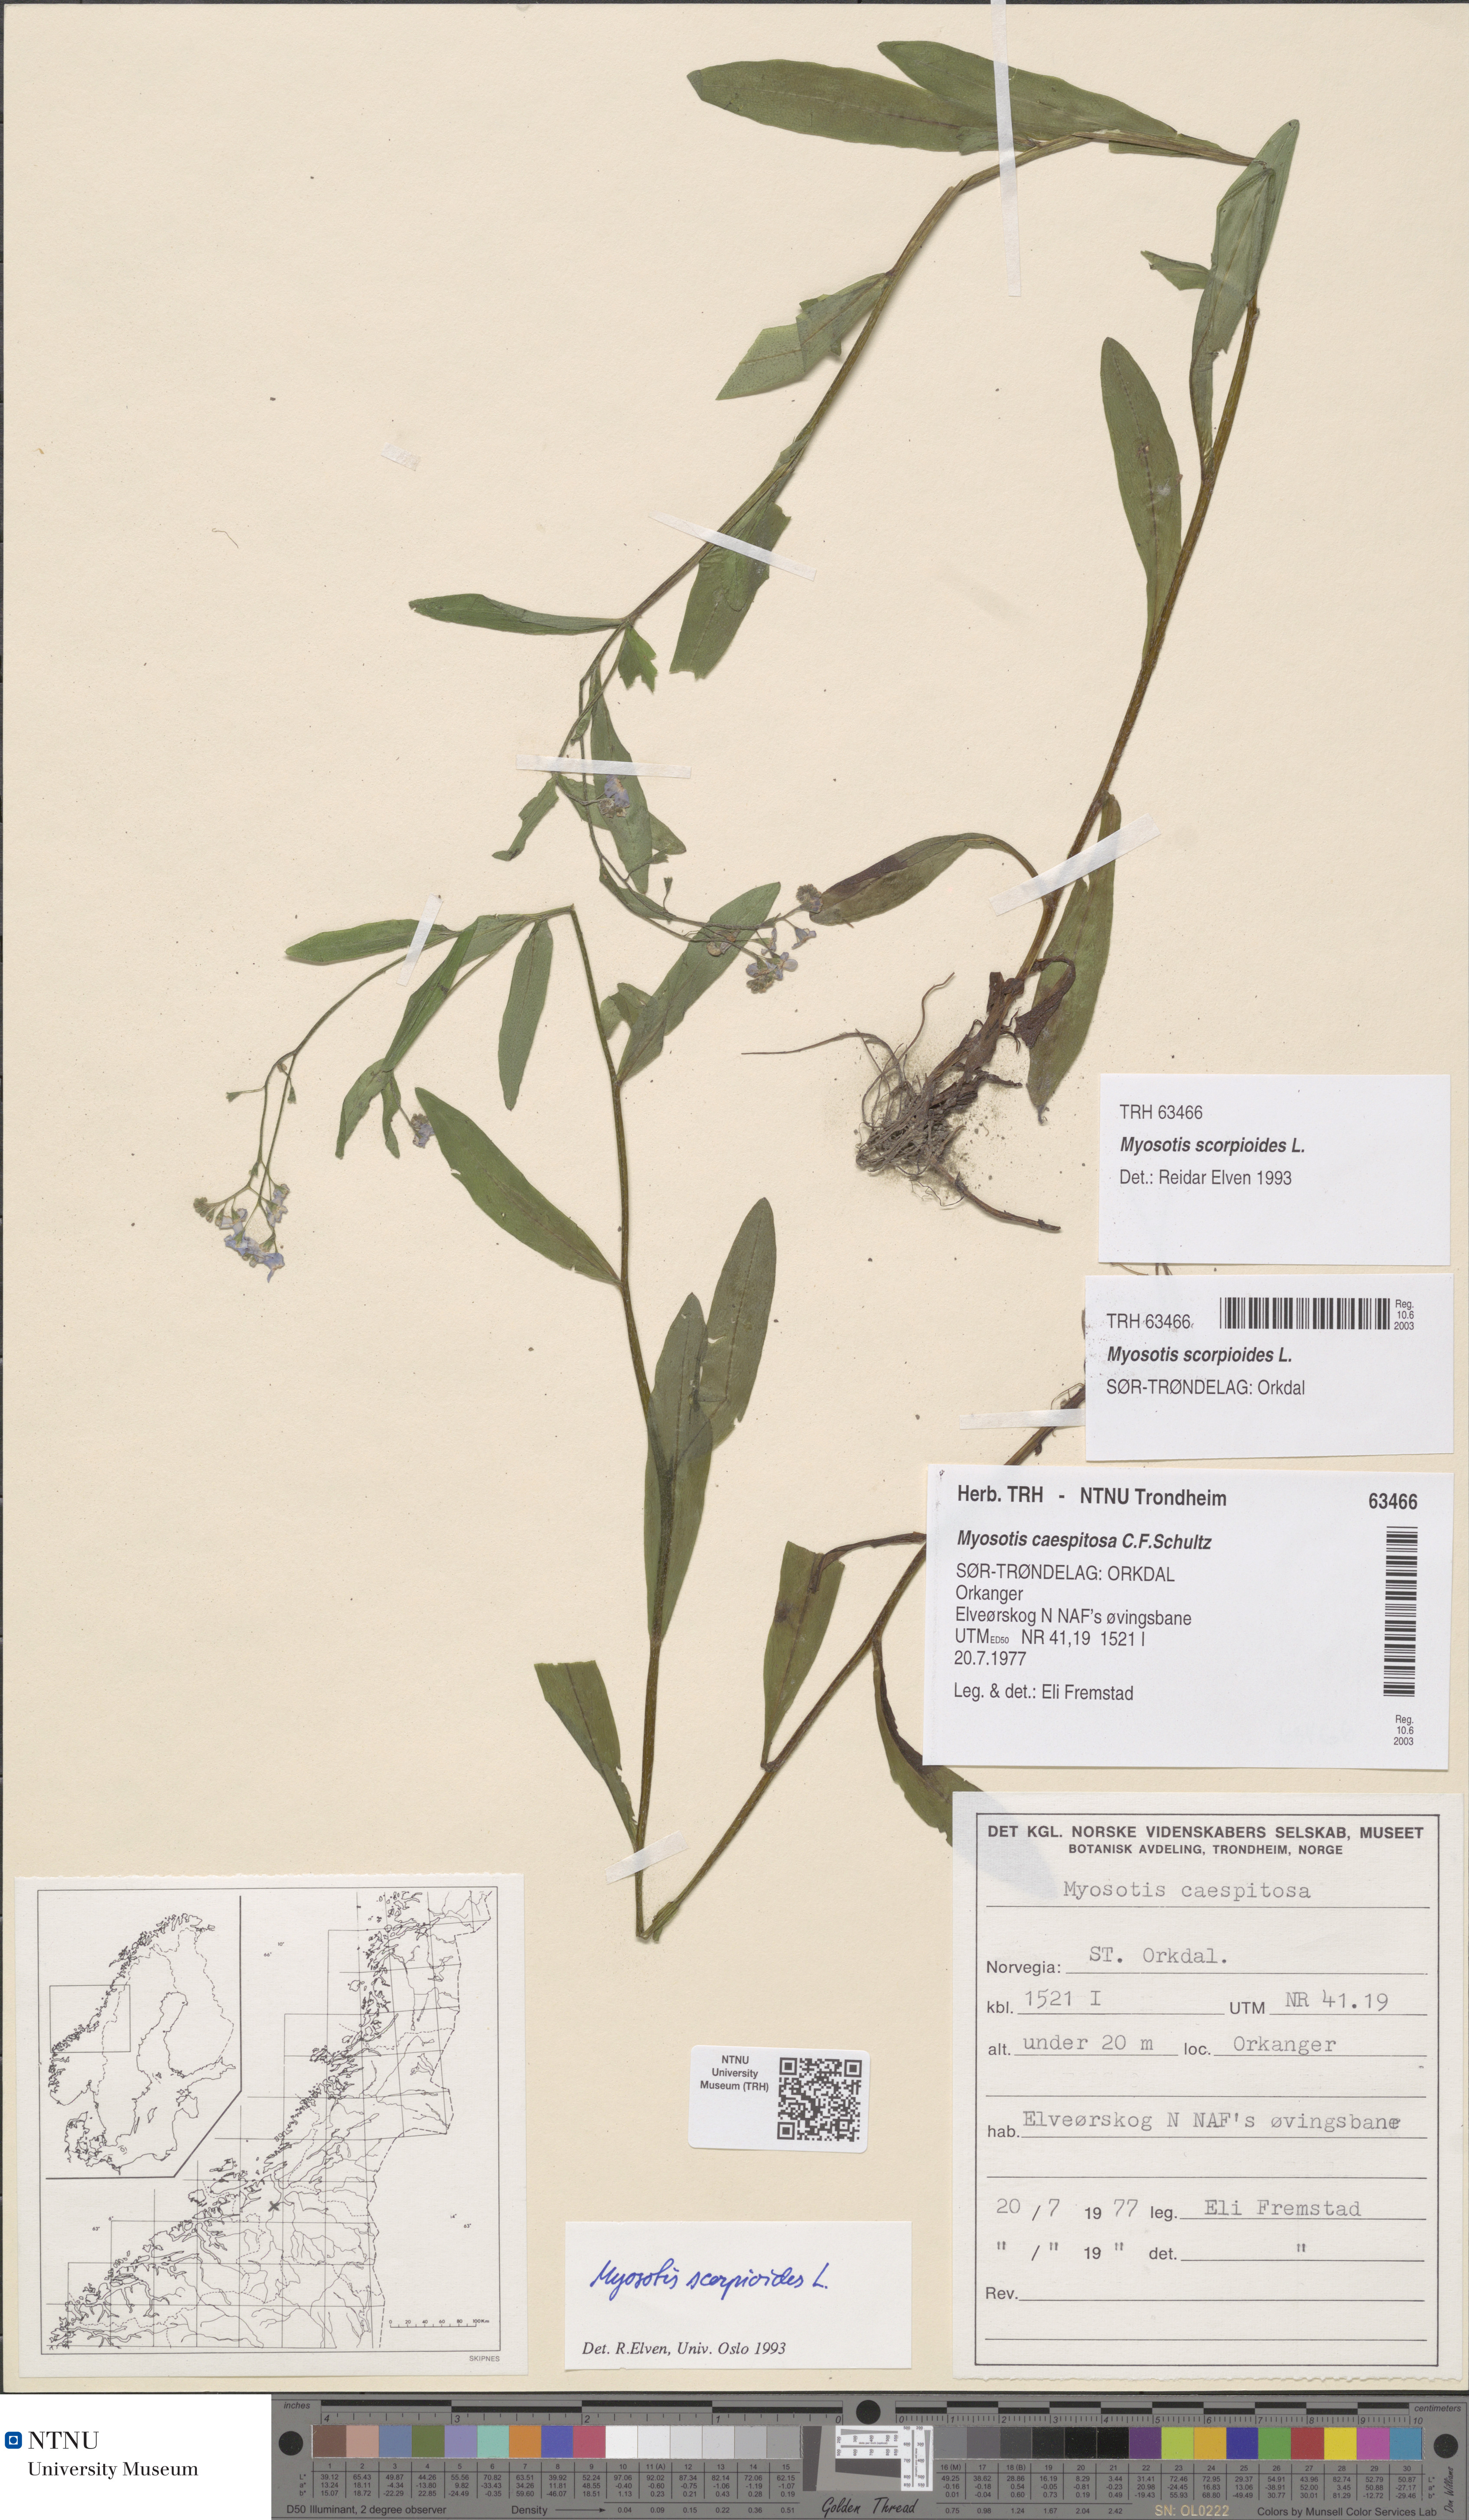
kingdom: Plantae
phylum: Tracheophyta
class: Magnoliopsida
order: Boraginales
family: Boraginaceae
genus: Myosotis
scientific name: Myosotis scorpioides
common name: Water forget-me-not
